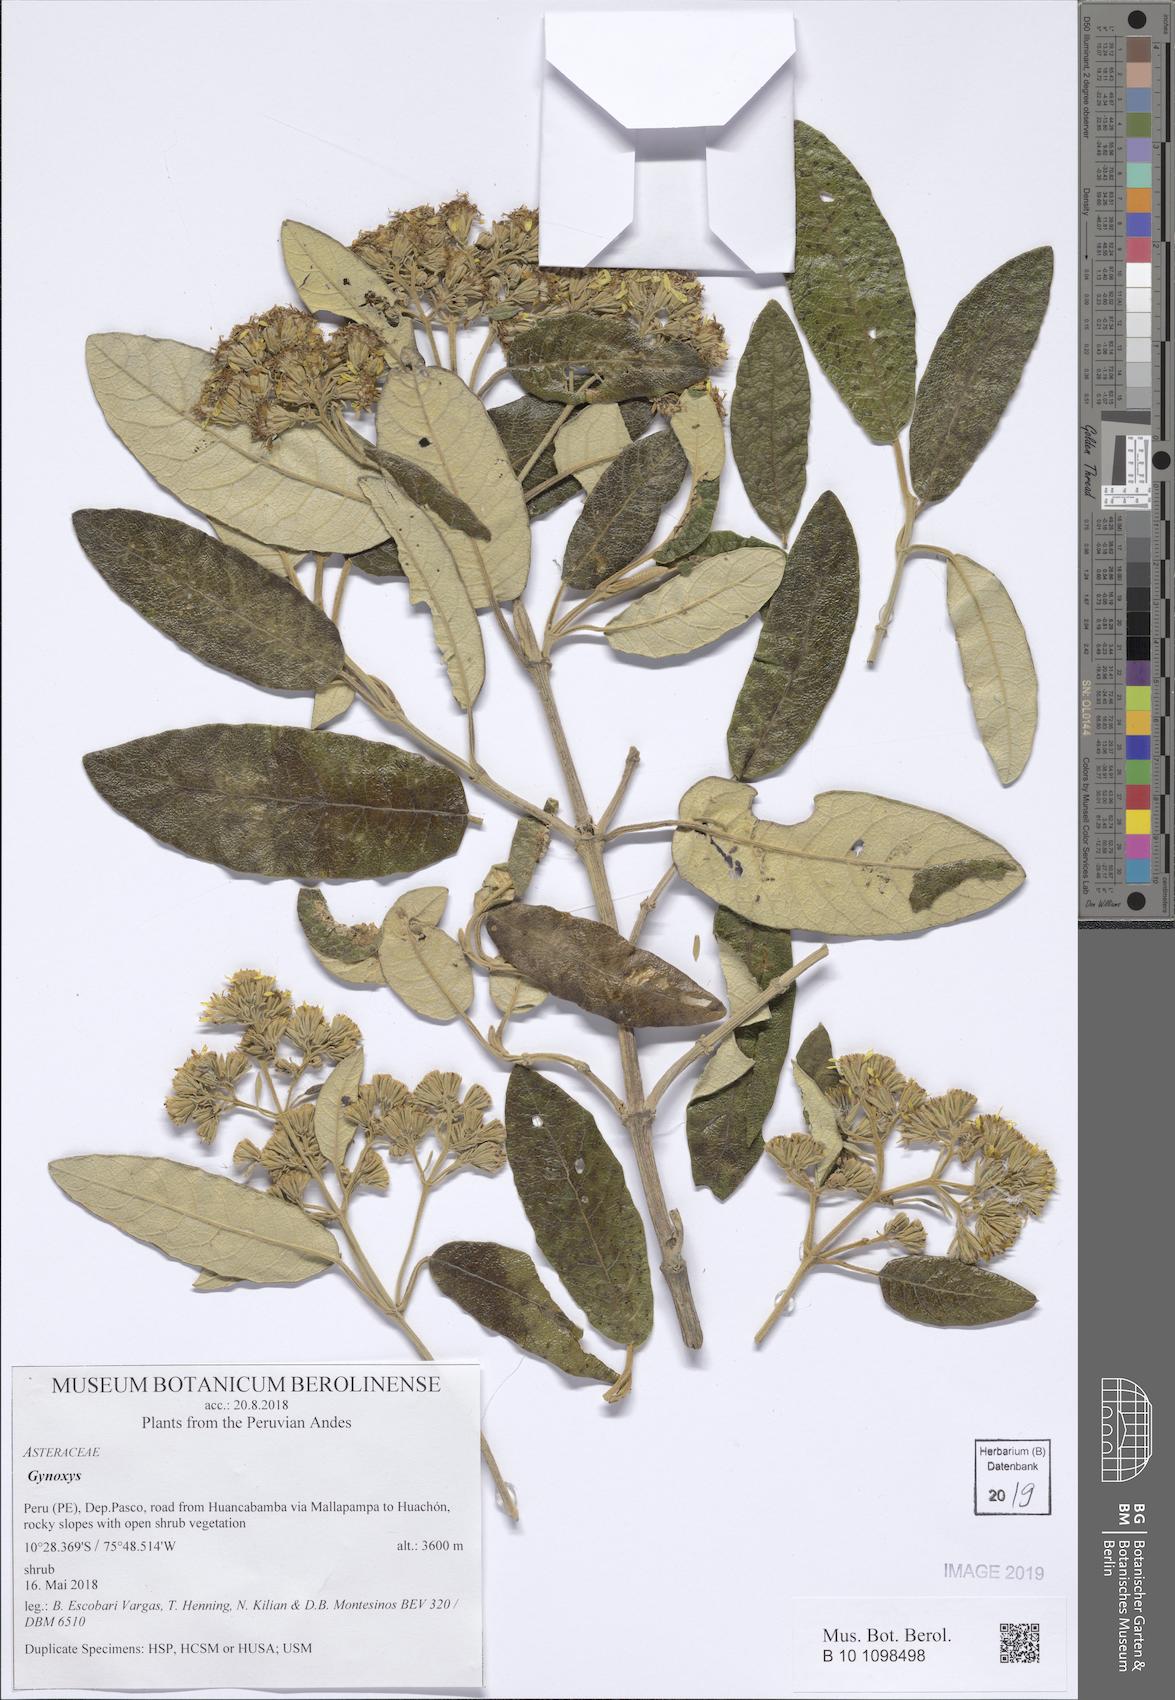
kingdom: Plantae
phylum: Tracheophyta
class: Magnoliopsida
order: Asterales
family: Asteraceae
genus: Gynoxys
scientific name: Gynoxys
